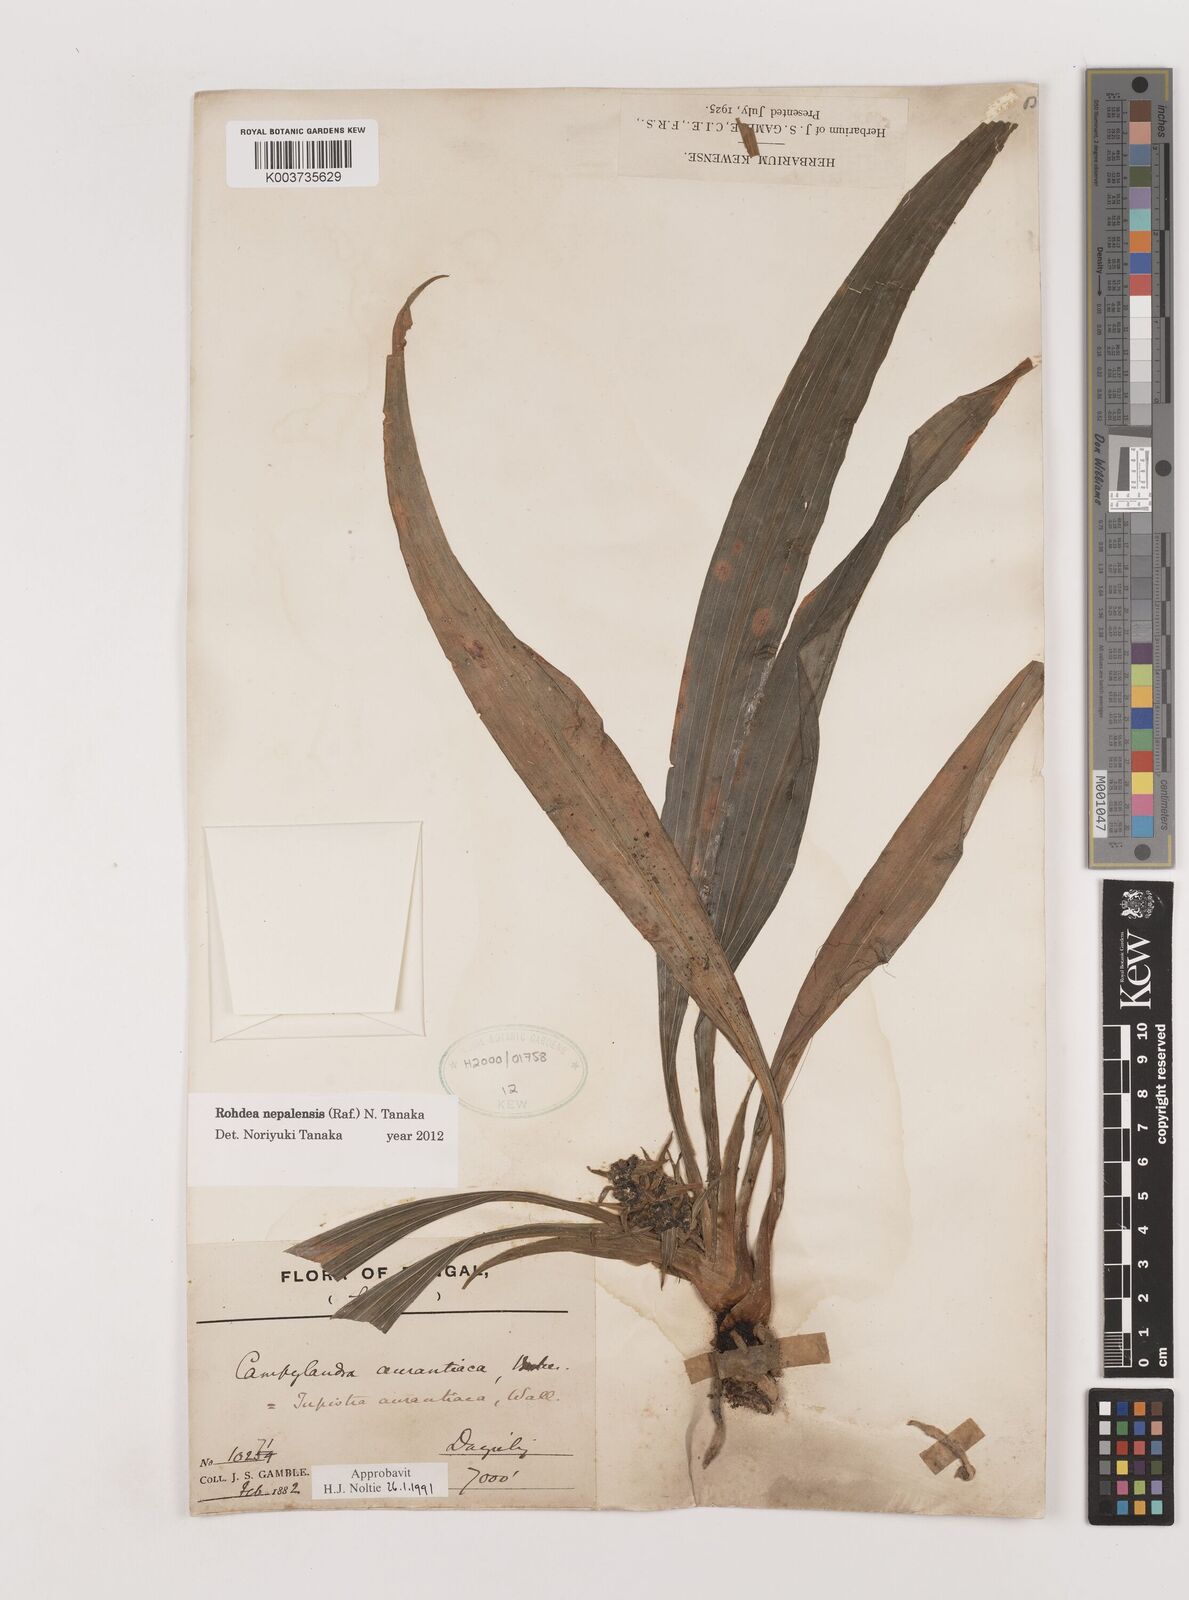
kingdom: Plantae
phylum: Tracheophyta
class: Liliopsida
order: Asparagales
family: Asparagaceae
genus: Rohdea
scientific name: Rohdea nepalensis
